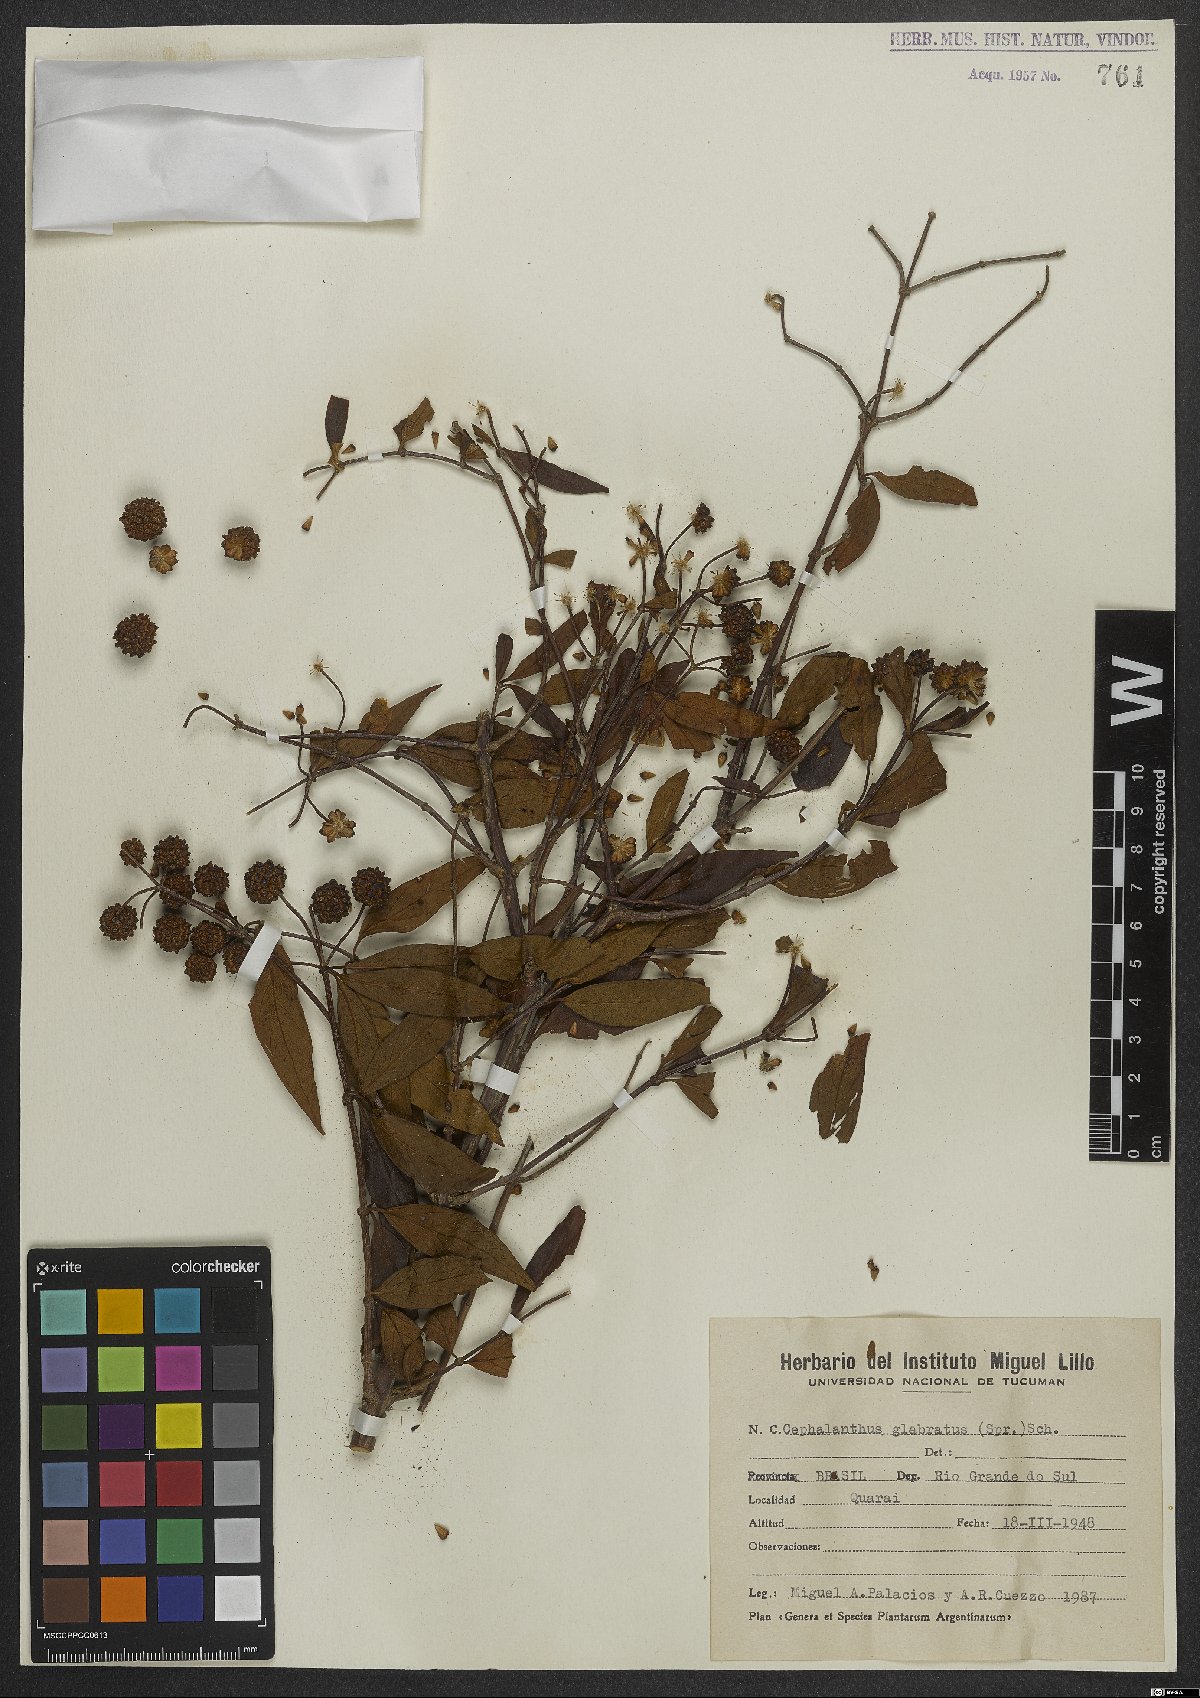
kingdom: Plantae
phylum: Tracheophyta
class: Magnoliopsida
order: Gentianales
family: Rubiaceae
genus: Cephalanthus
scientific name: Cephalanthus glabratus
